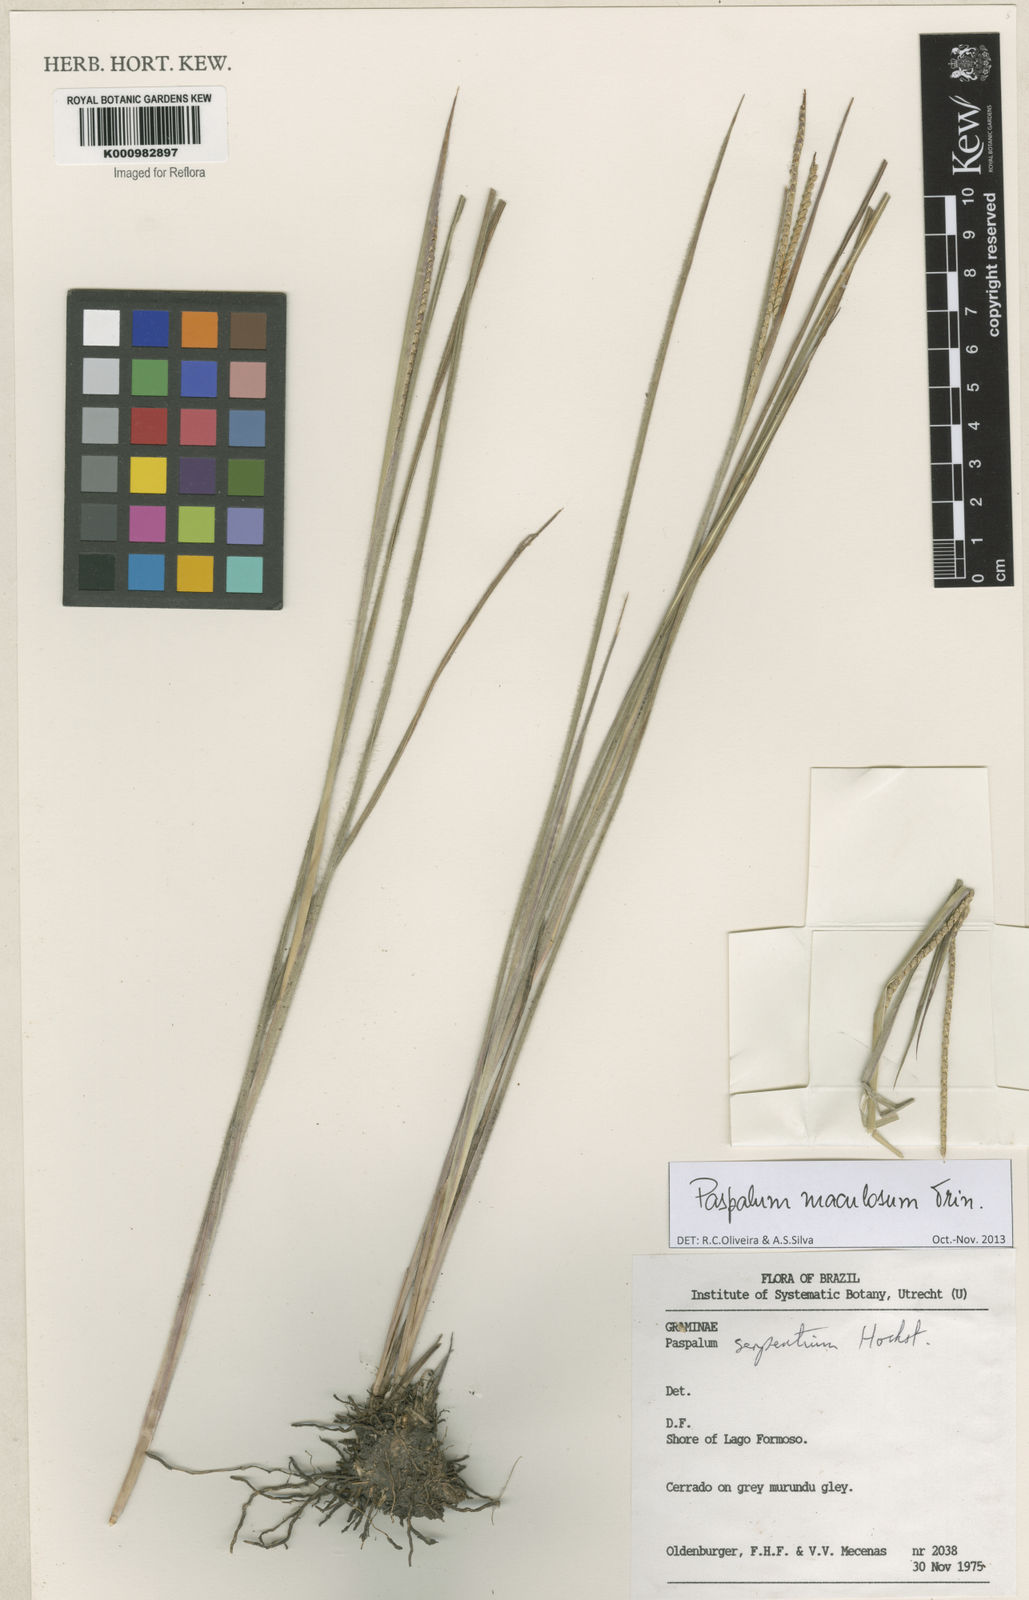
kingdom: Plantae
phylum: Tracheophyta
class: Liliopsida
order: Poales
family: Poaceae
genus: Paspalum
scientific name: Paspalum maculosum
